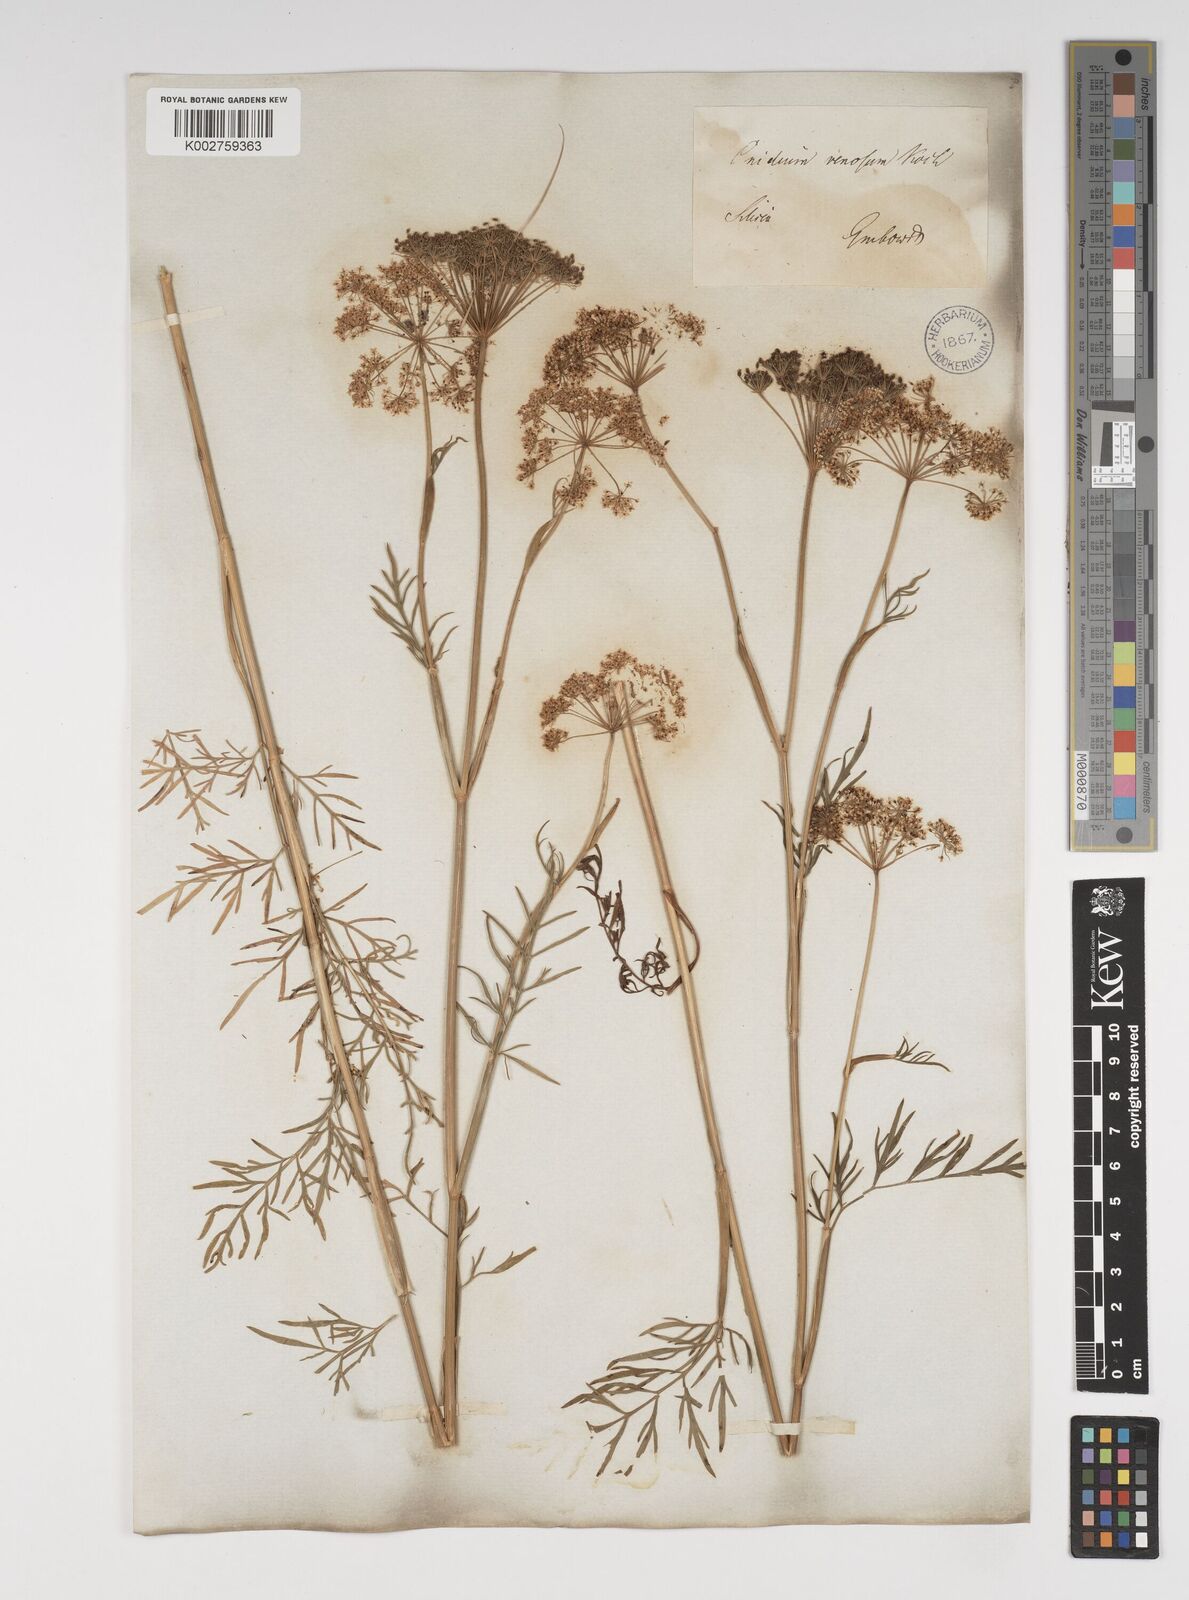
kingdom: Plantae
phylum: Tracheophyta
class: Magnoliopsida
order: Apiales
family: Apiaceae
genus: Kadenia
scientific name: Kadenia dubia
